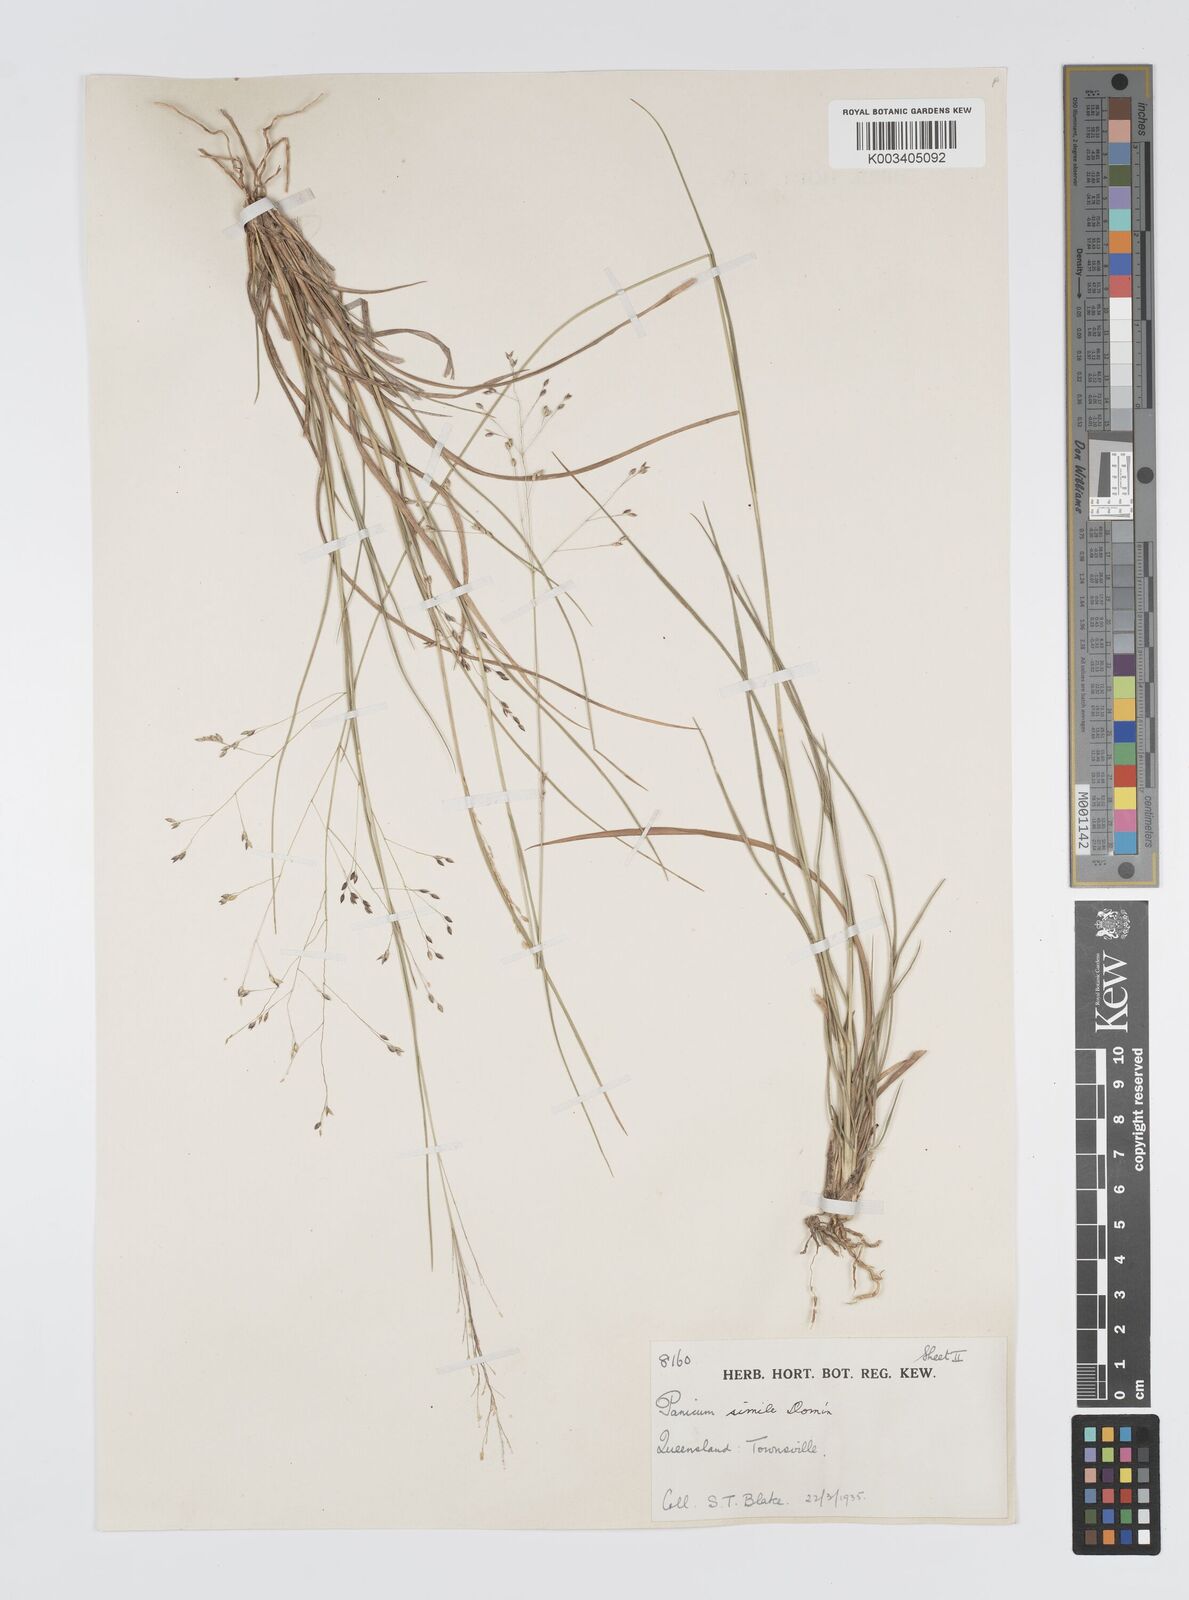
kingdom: Plantae
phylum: Tracheophyta
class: Liliopsida
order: Poales
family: Poaceae
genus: Panicum
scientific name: Panicum simile
